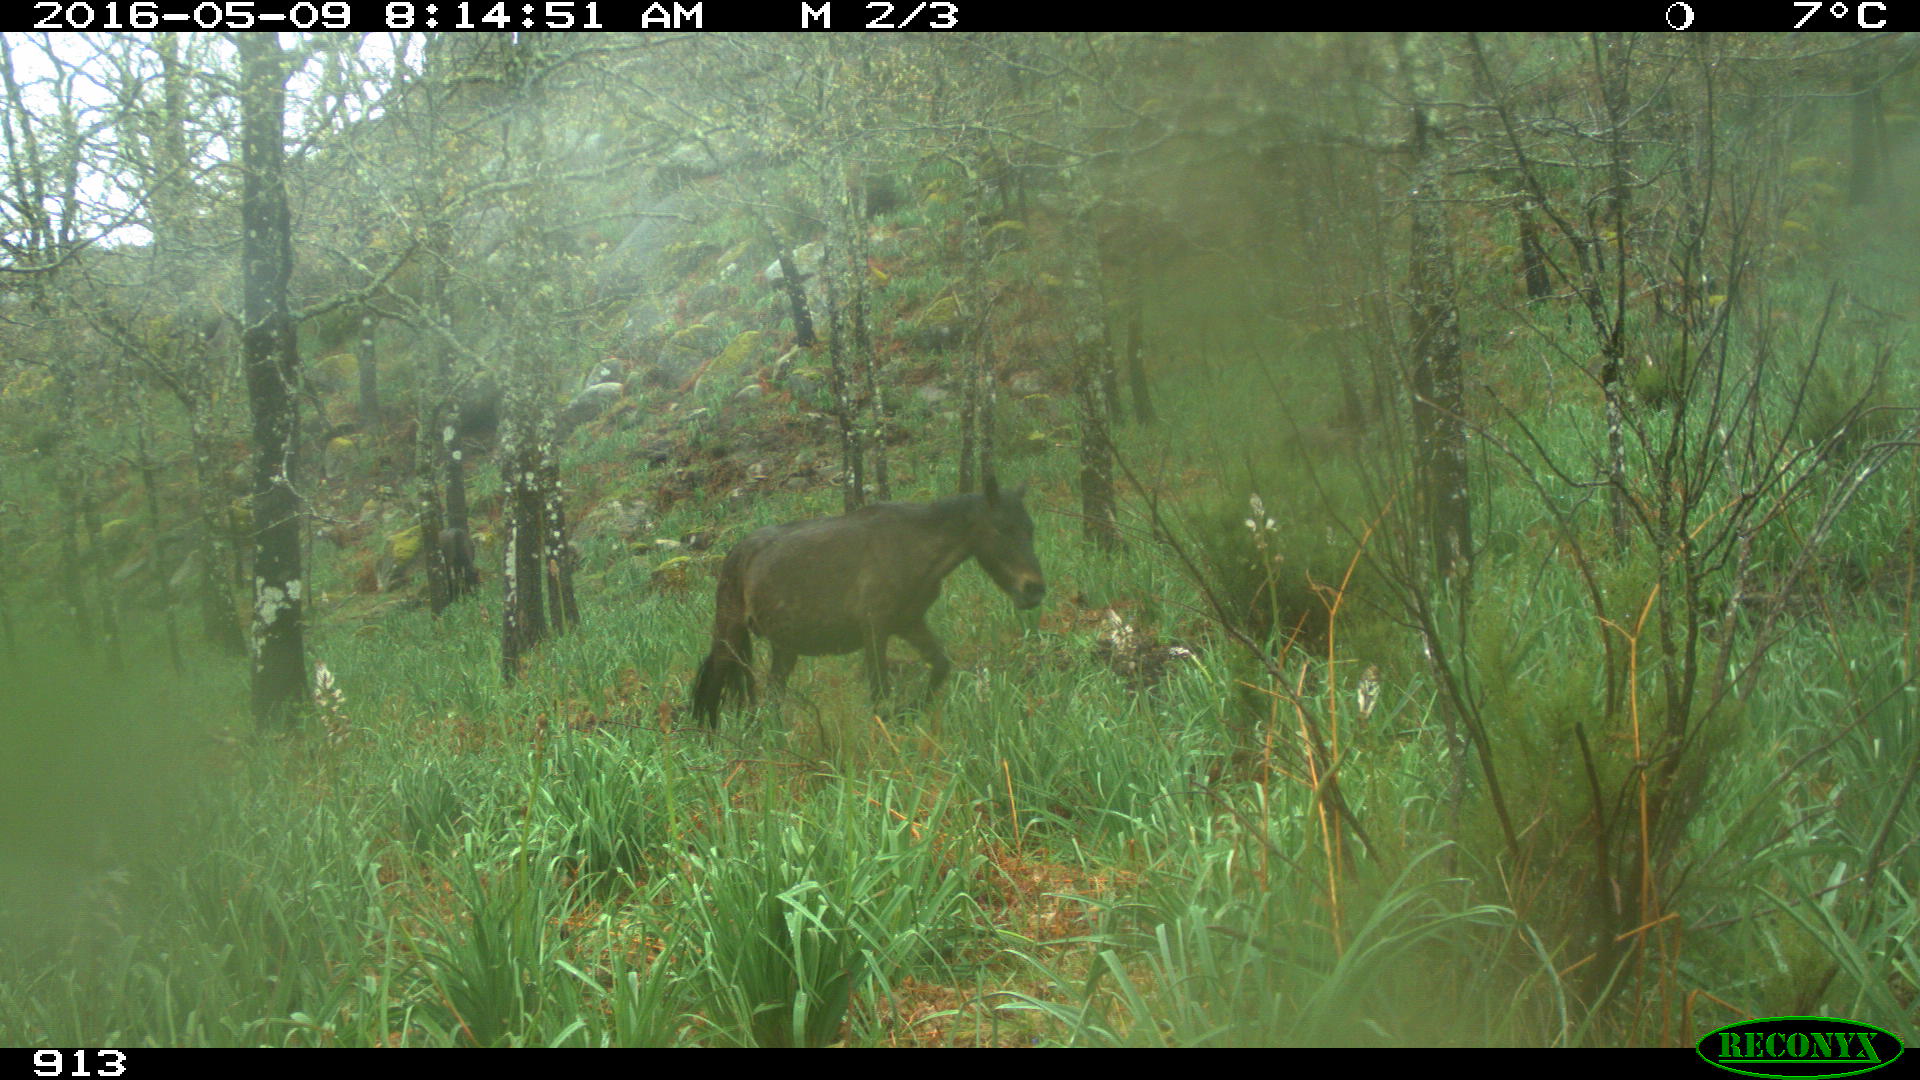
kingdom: Animalia
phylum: Chordata
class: Mammalia
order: Perissodactyla
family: Equidae
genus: Equus
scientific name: Equus caballus
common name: Horse
